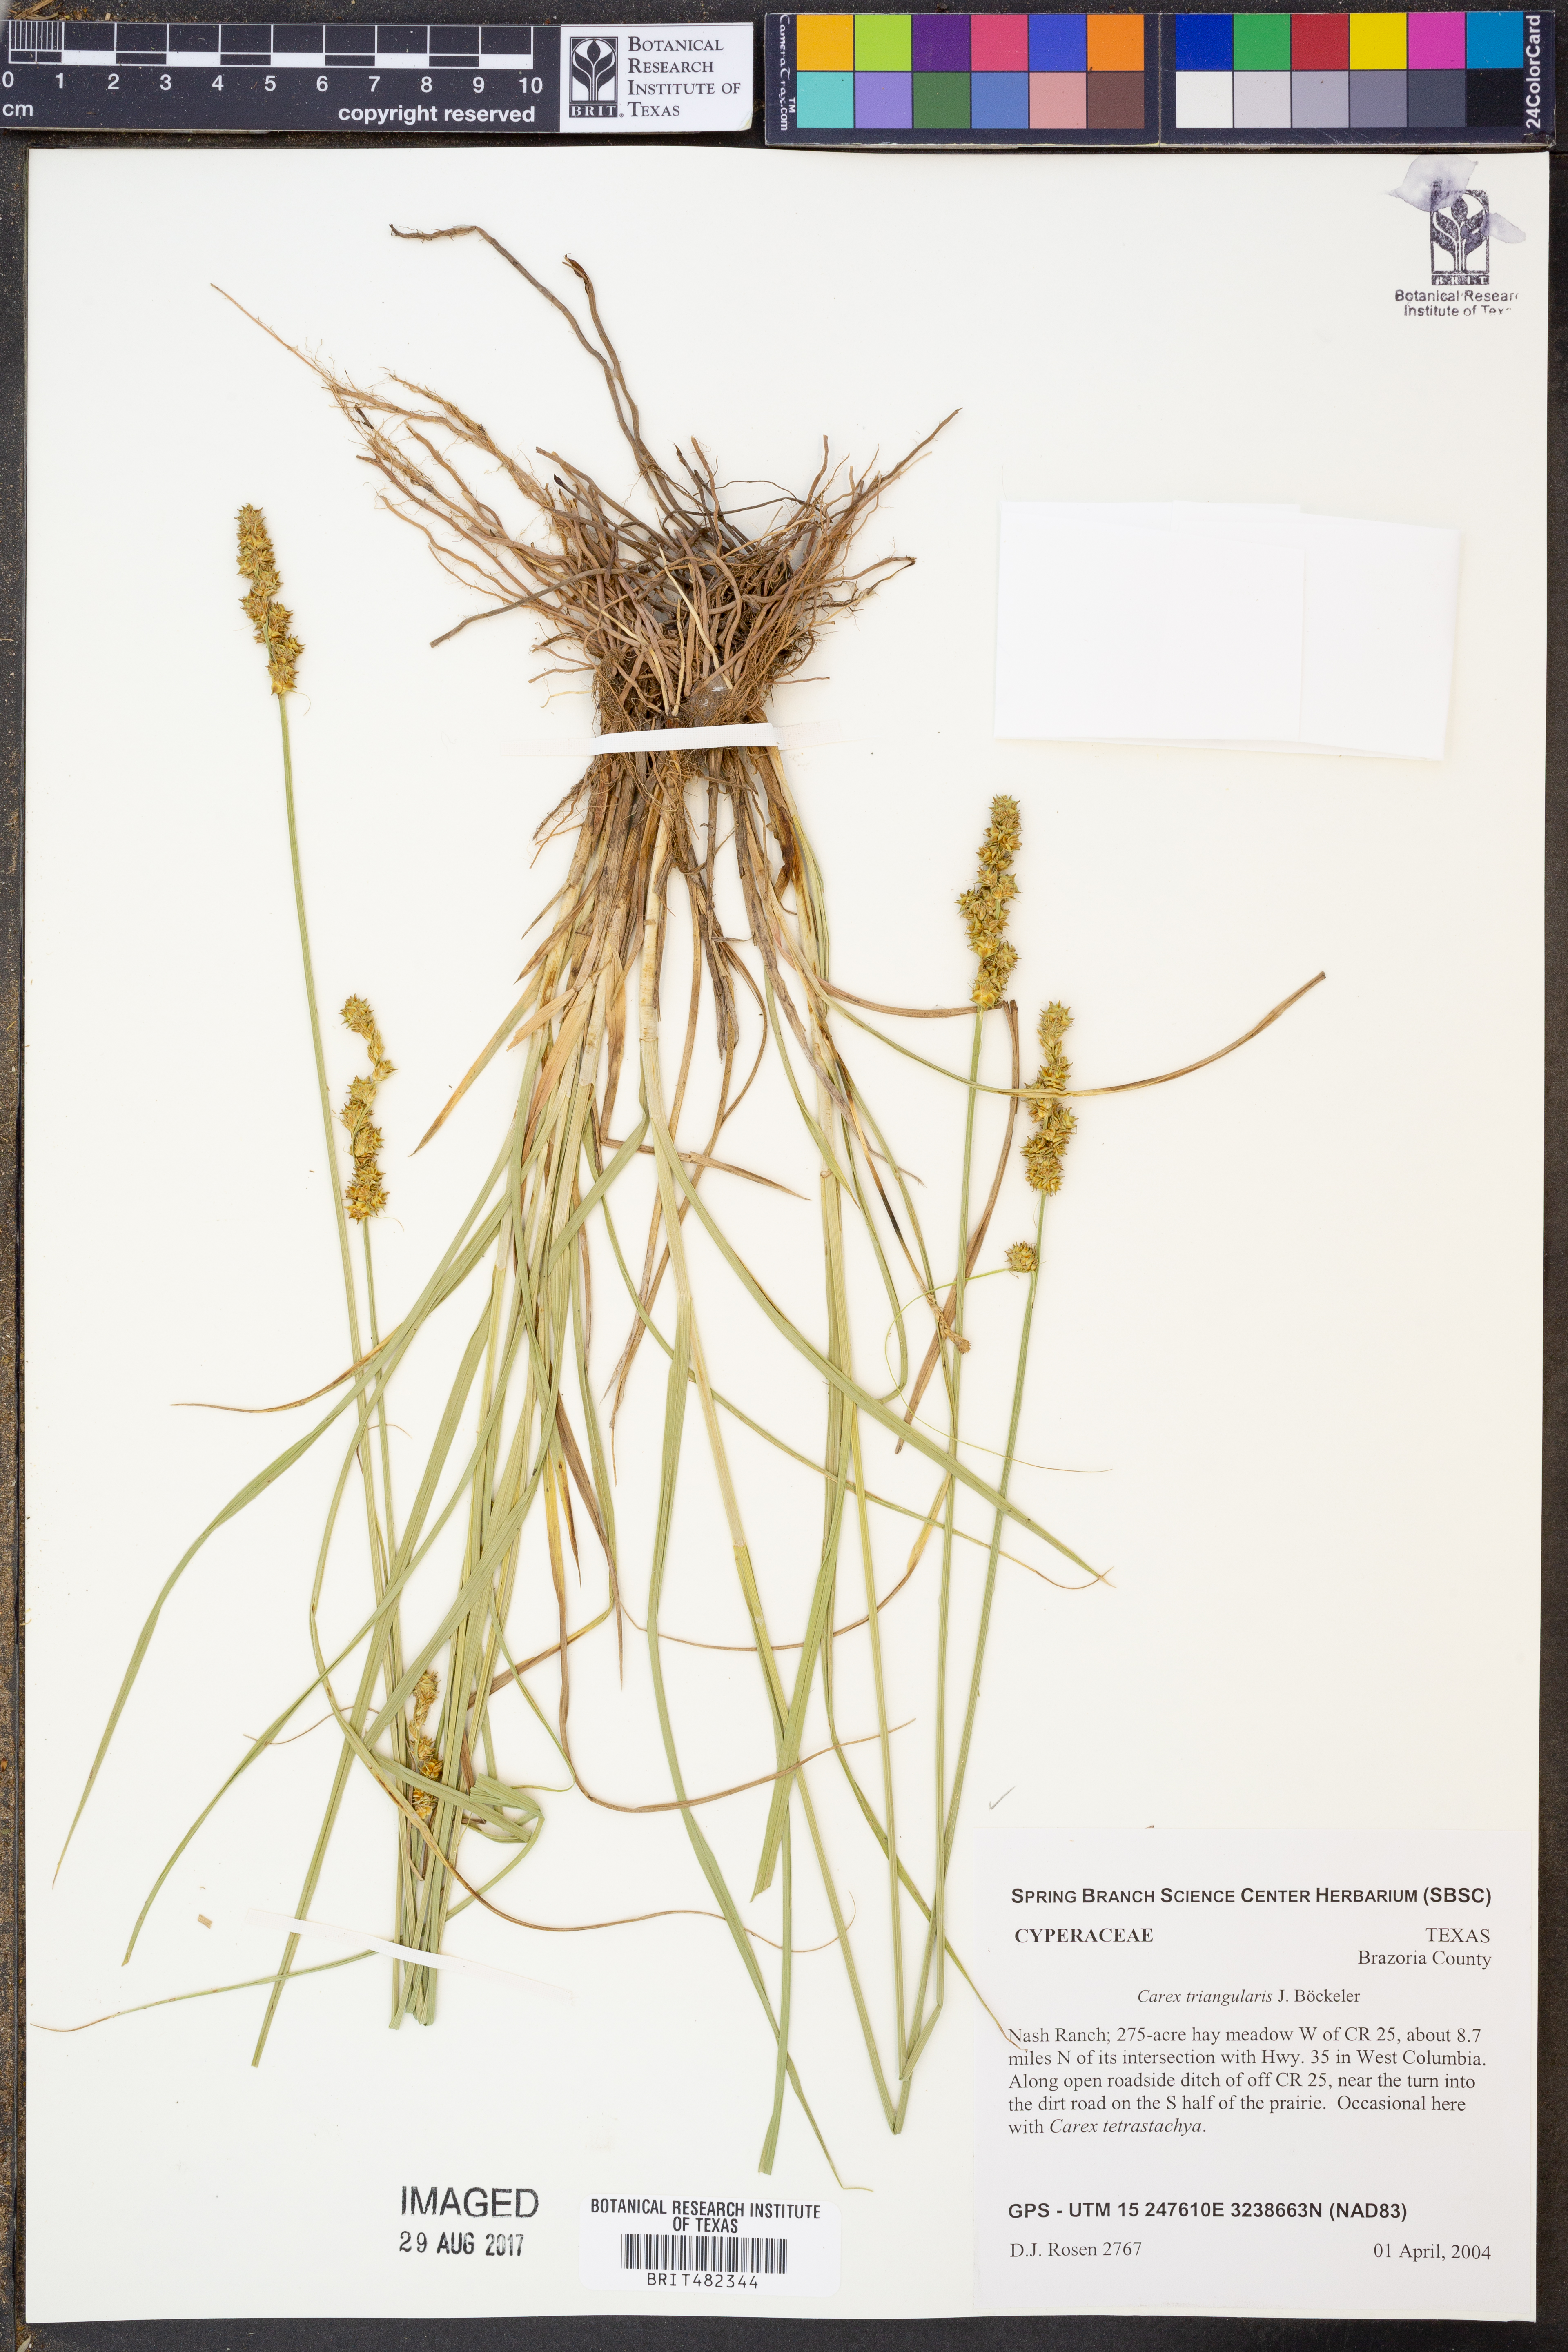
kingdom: Plantae
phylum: Tracheophyta
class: Liliopsida
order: Poales
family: Cyperaceae
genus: Carex
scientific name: Carex triangularis
